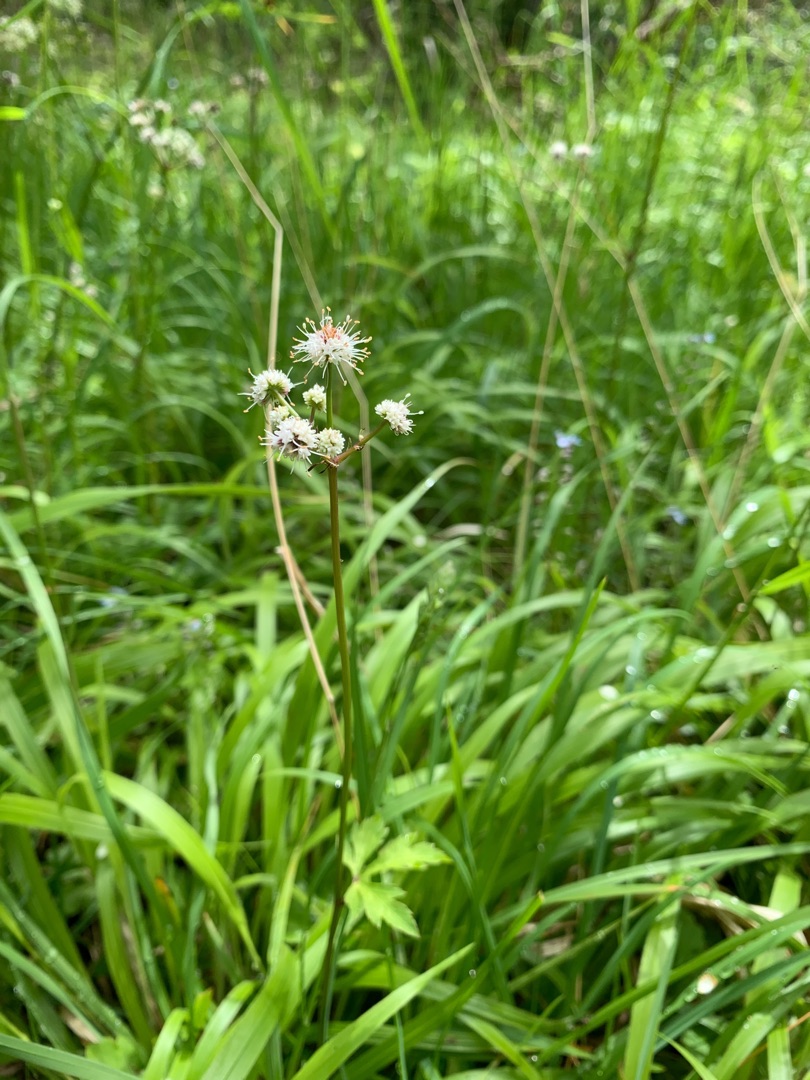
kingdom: Plantae
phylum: Tracheophyta
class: Magnoliopsida
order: Apiales
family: Apiaceae
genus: Sanicula
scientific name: Sanicula europaea
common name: Sanikel
